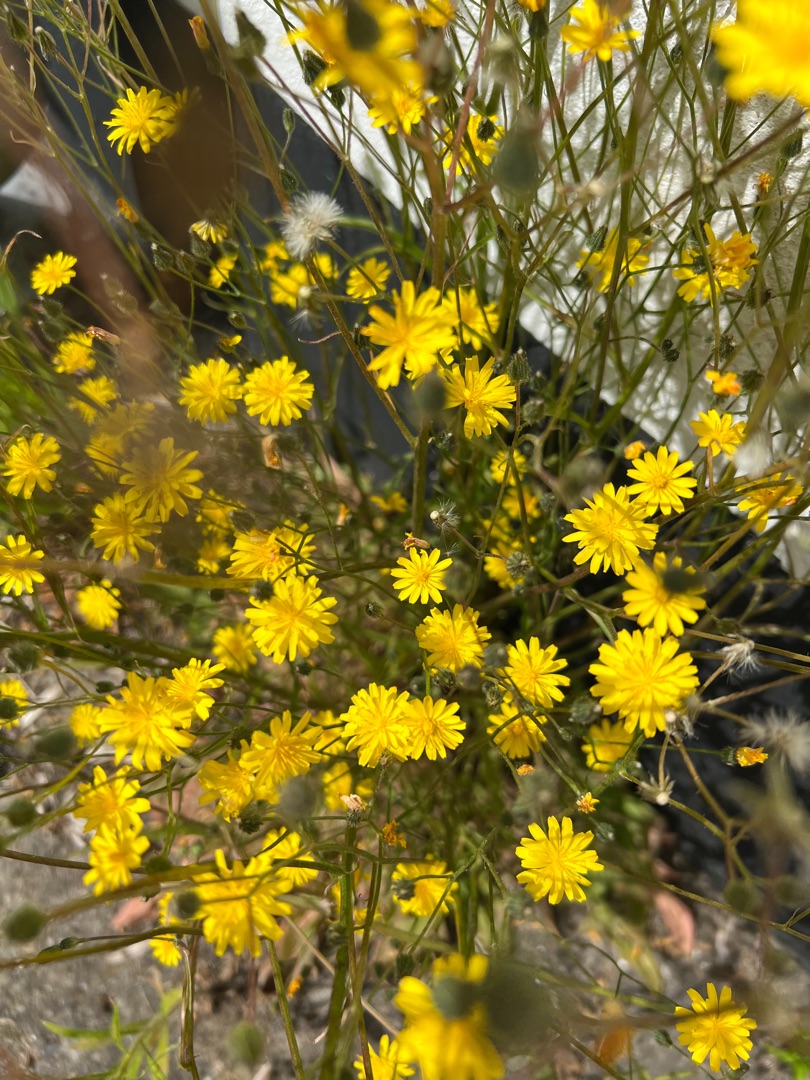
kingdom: Plantae
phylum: Tracheophyta
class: Magnoliopsida
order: Asterales
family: Asteraceae
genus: Crepis
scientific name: Crepis capillaris
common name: Grøn høgeskæg
